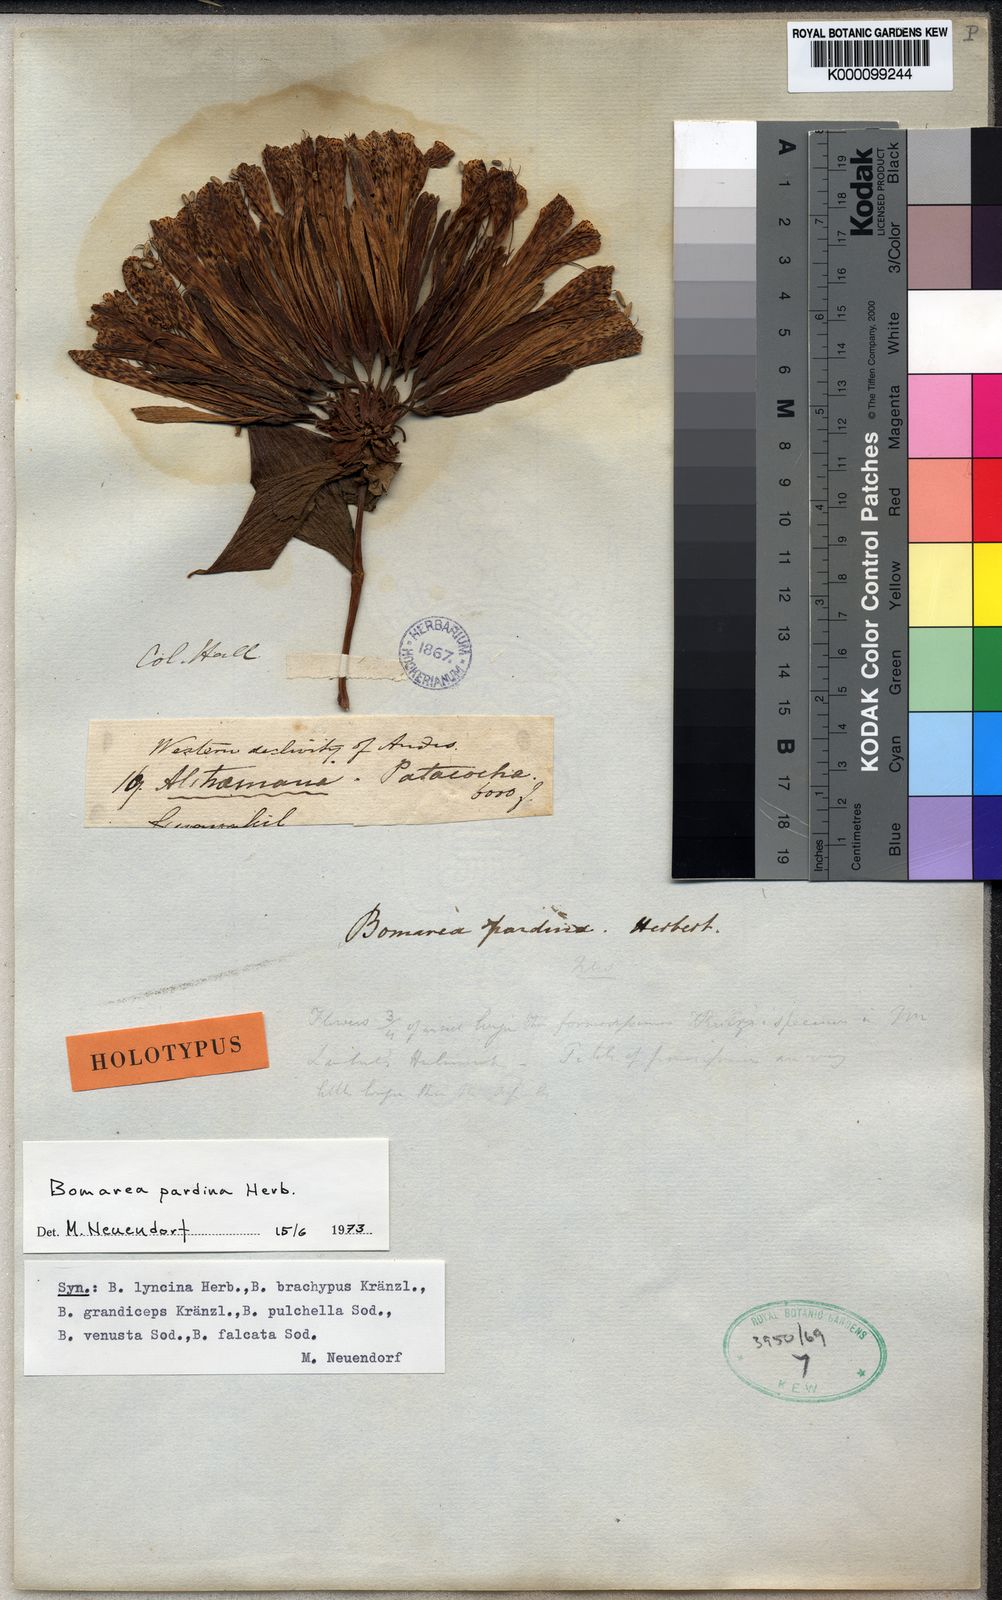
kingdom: Plantae
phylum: Tracheophyta
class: Liliopsida
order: Liliales
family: Alstroemeriaceae
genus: Bomarea
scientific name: Bomarea pardina
